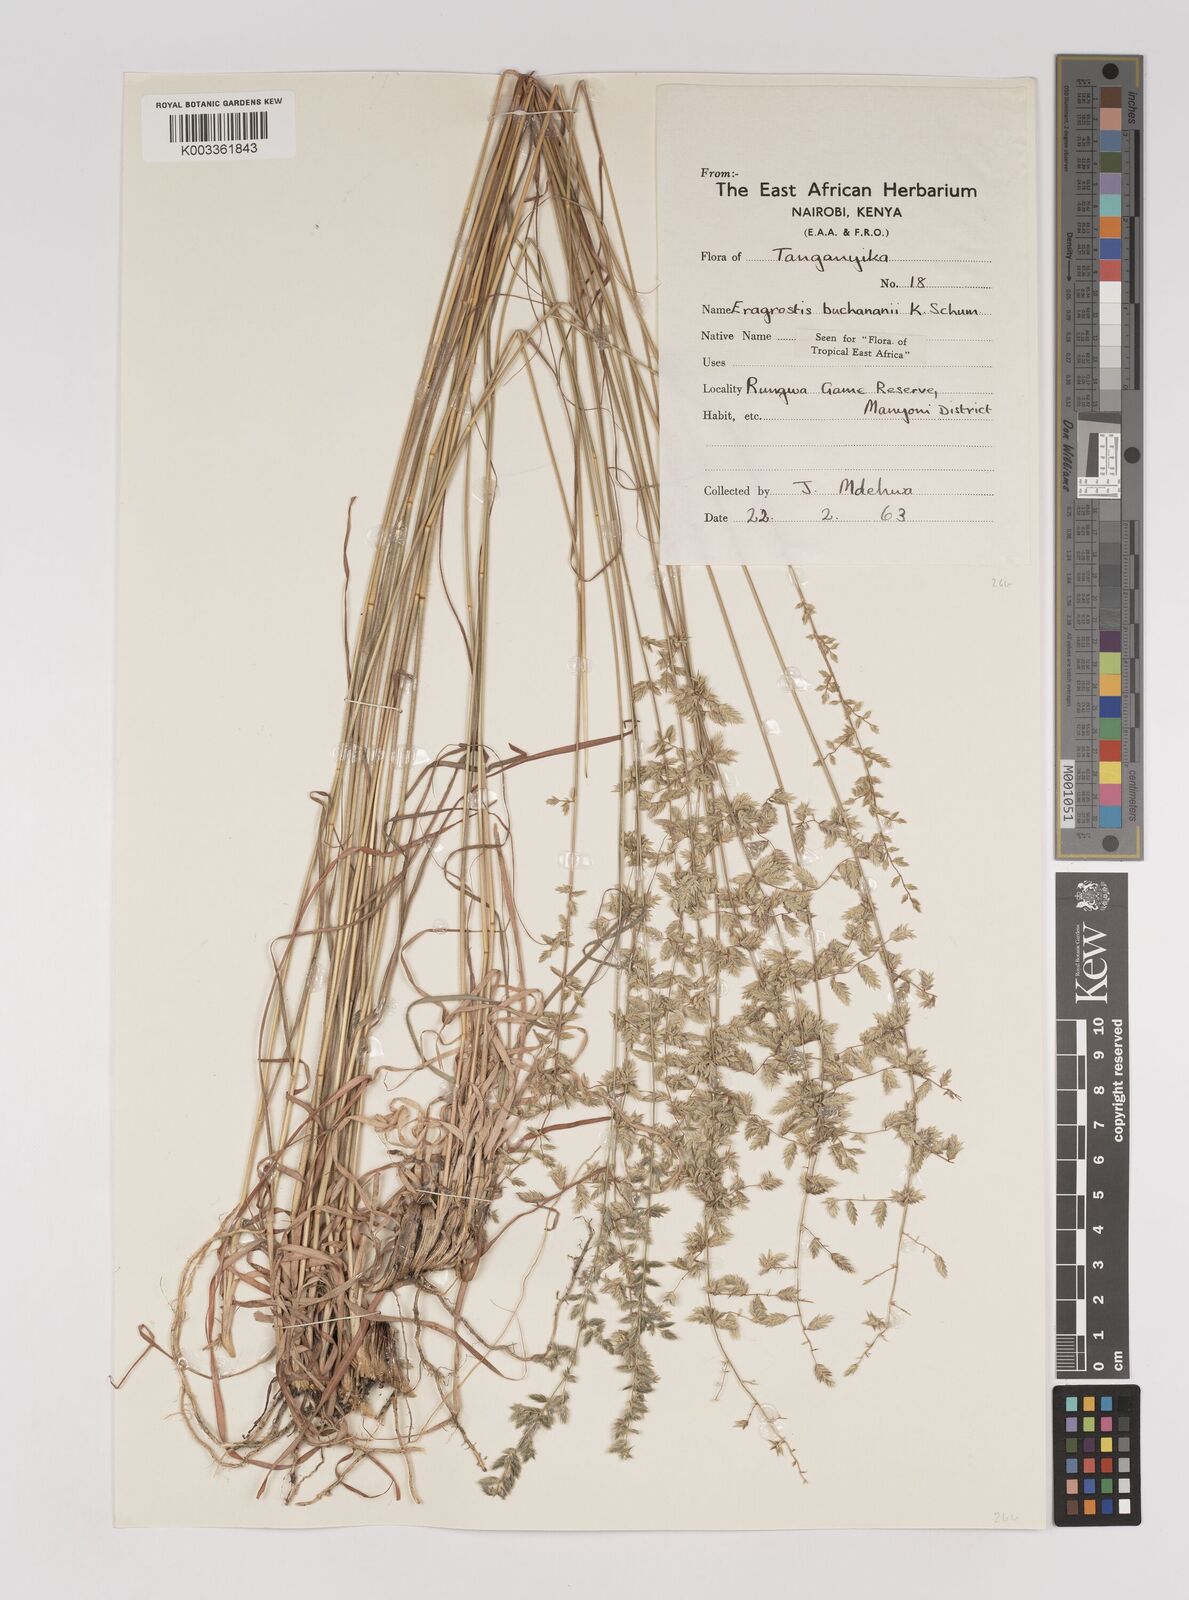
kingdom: Plantae
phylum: Tracheophyta
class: Liliopsida
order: Poales
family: Poaceae
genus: Eragrostis
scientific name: Eragrostis nindensis
